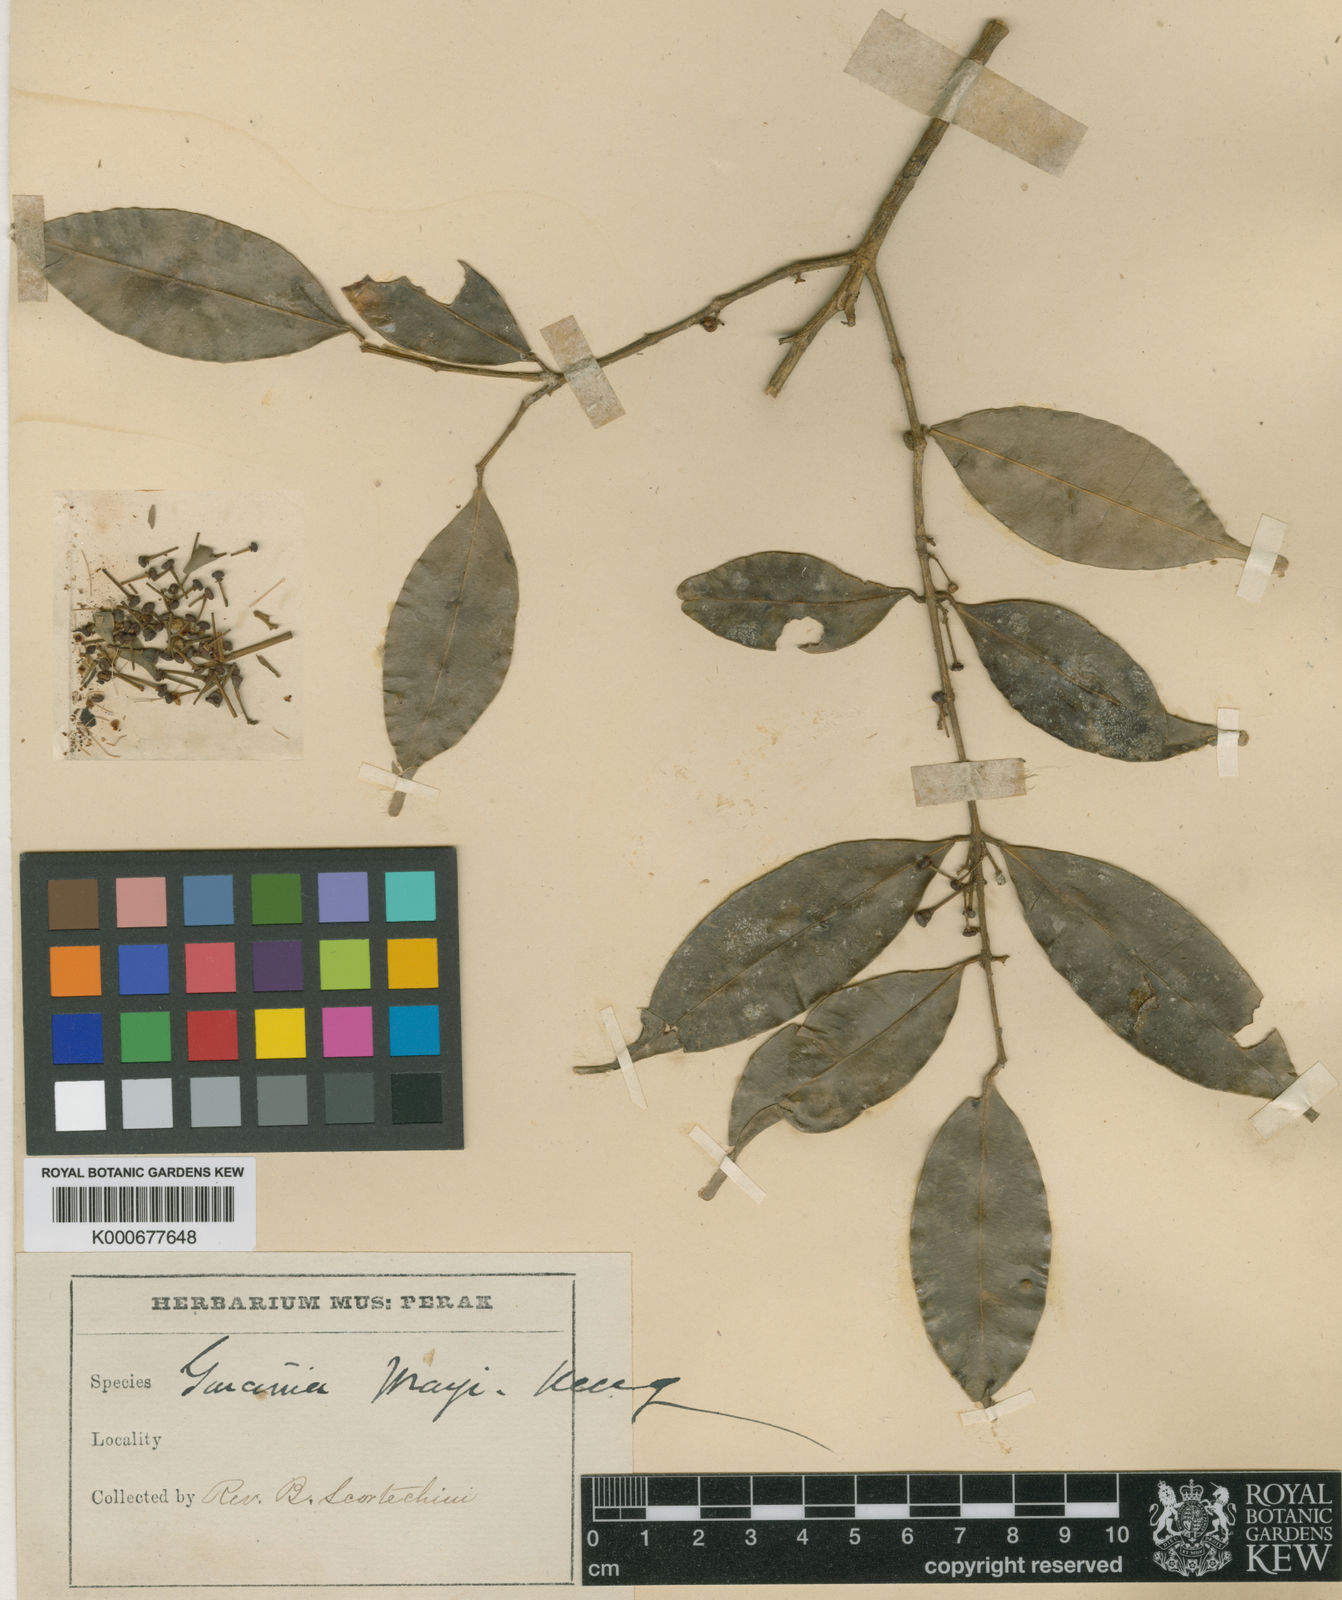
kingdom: Plantae
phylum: Tracheophyta
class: Magnoliopsida
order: Malpighiales
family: Clusiaceae
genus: Garcinia
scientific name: Garcinia merguensis
